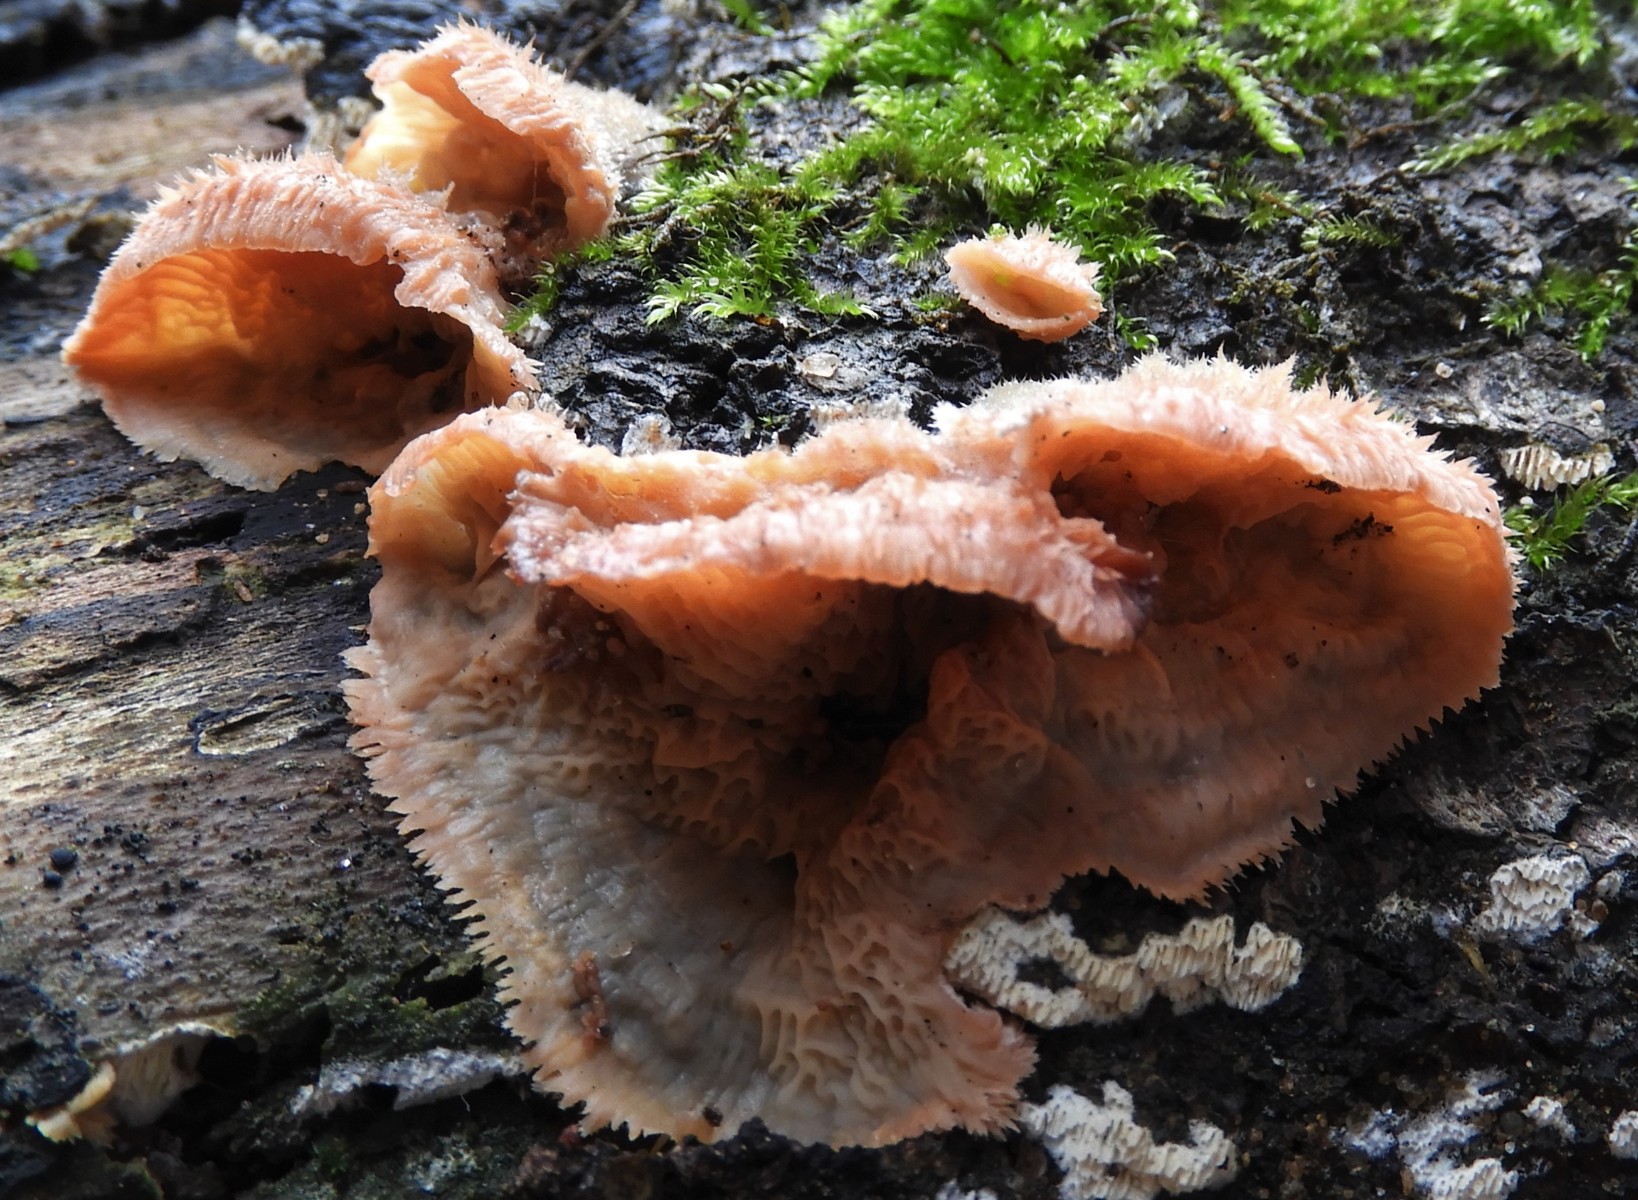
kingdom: Fungi
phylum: Basidiomycota
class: Agaricomycetes
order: Polyporales
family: Meruliaceae
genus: Phlebia
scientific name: Phlebia tremellosa
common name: bævrende åresvamp
